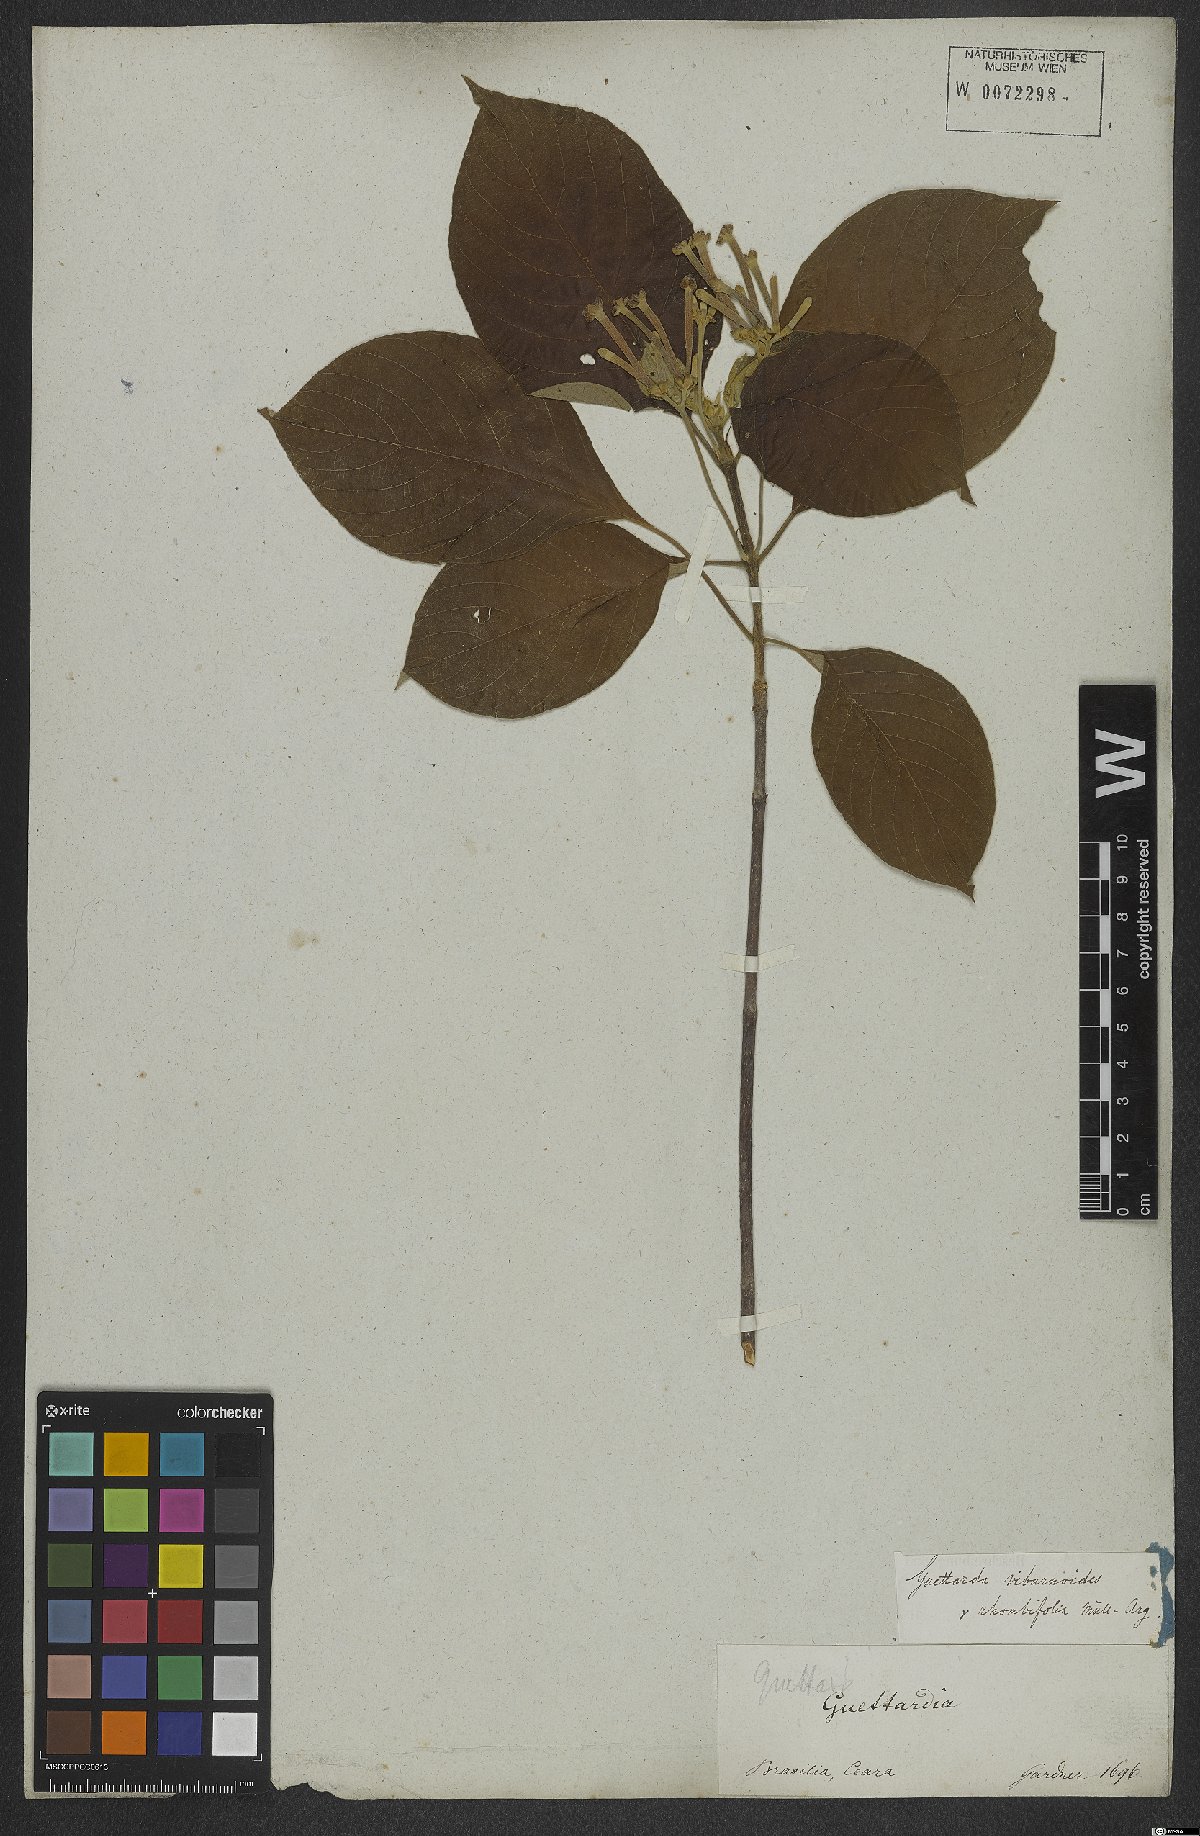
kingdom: Plantae
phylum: Tracheophyta
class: Magnoliopsida
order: Gentianales
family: Rubiaceae
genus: Guettarda
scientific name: Guettarda viburnoides
